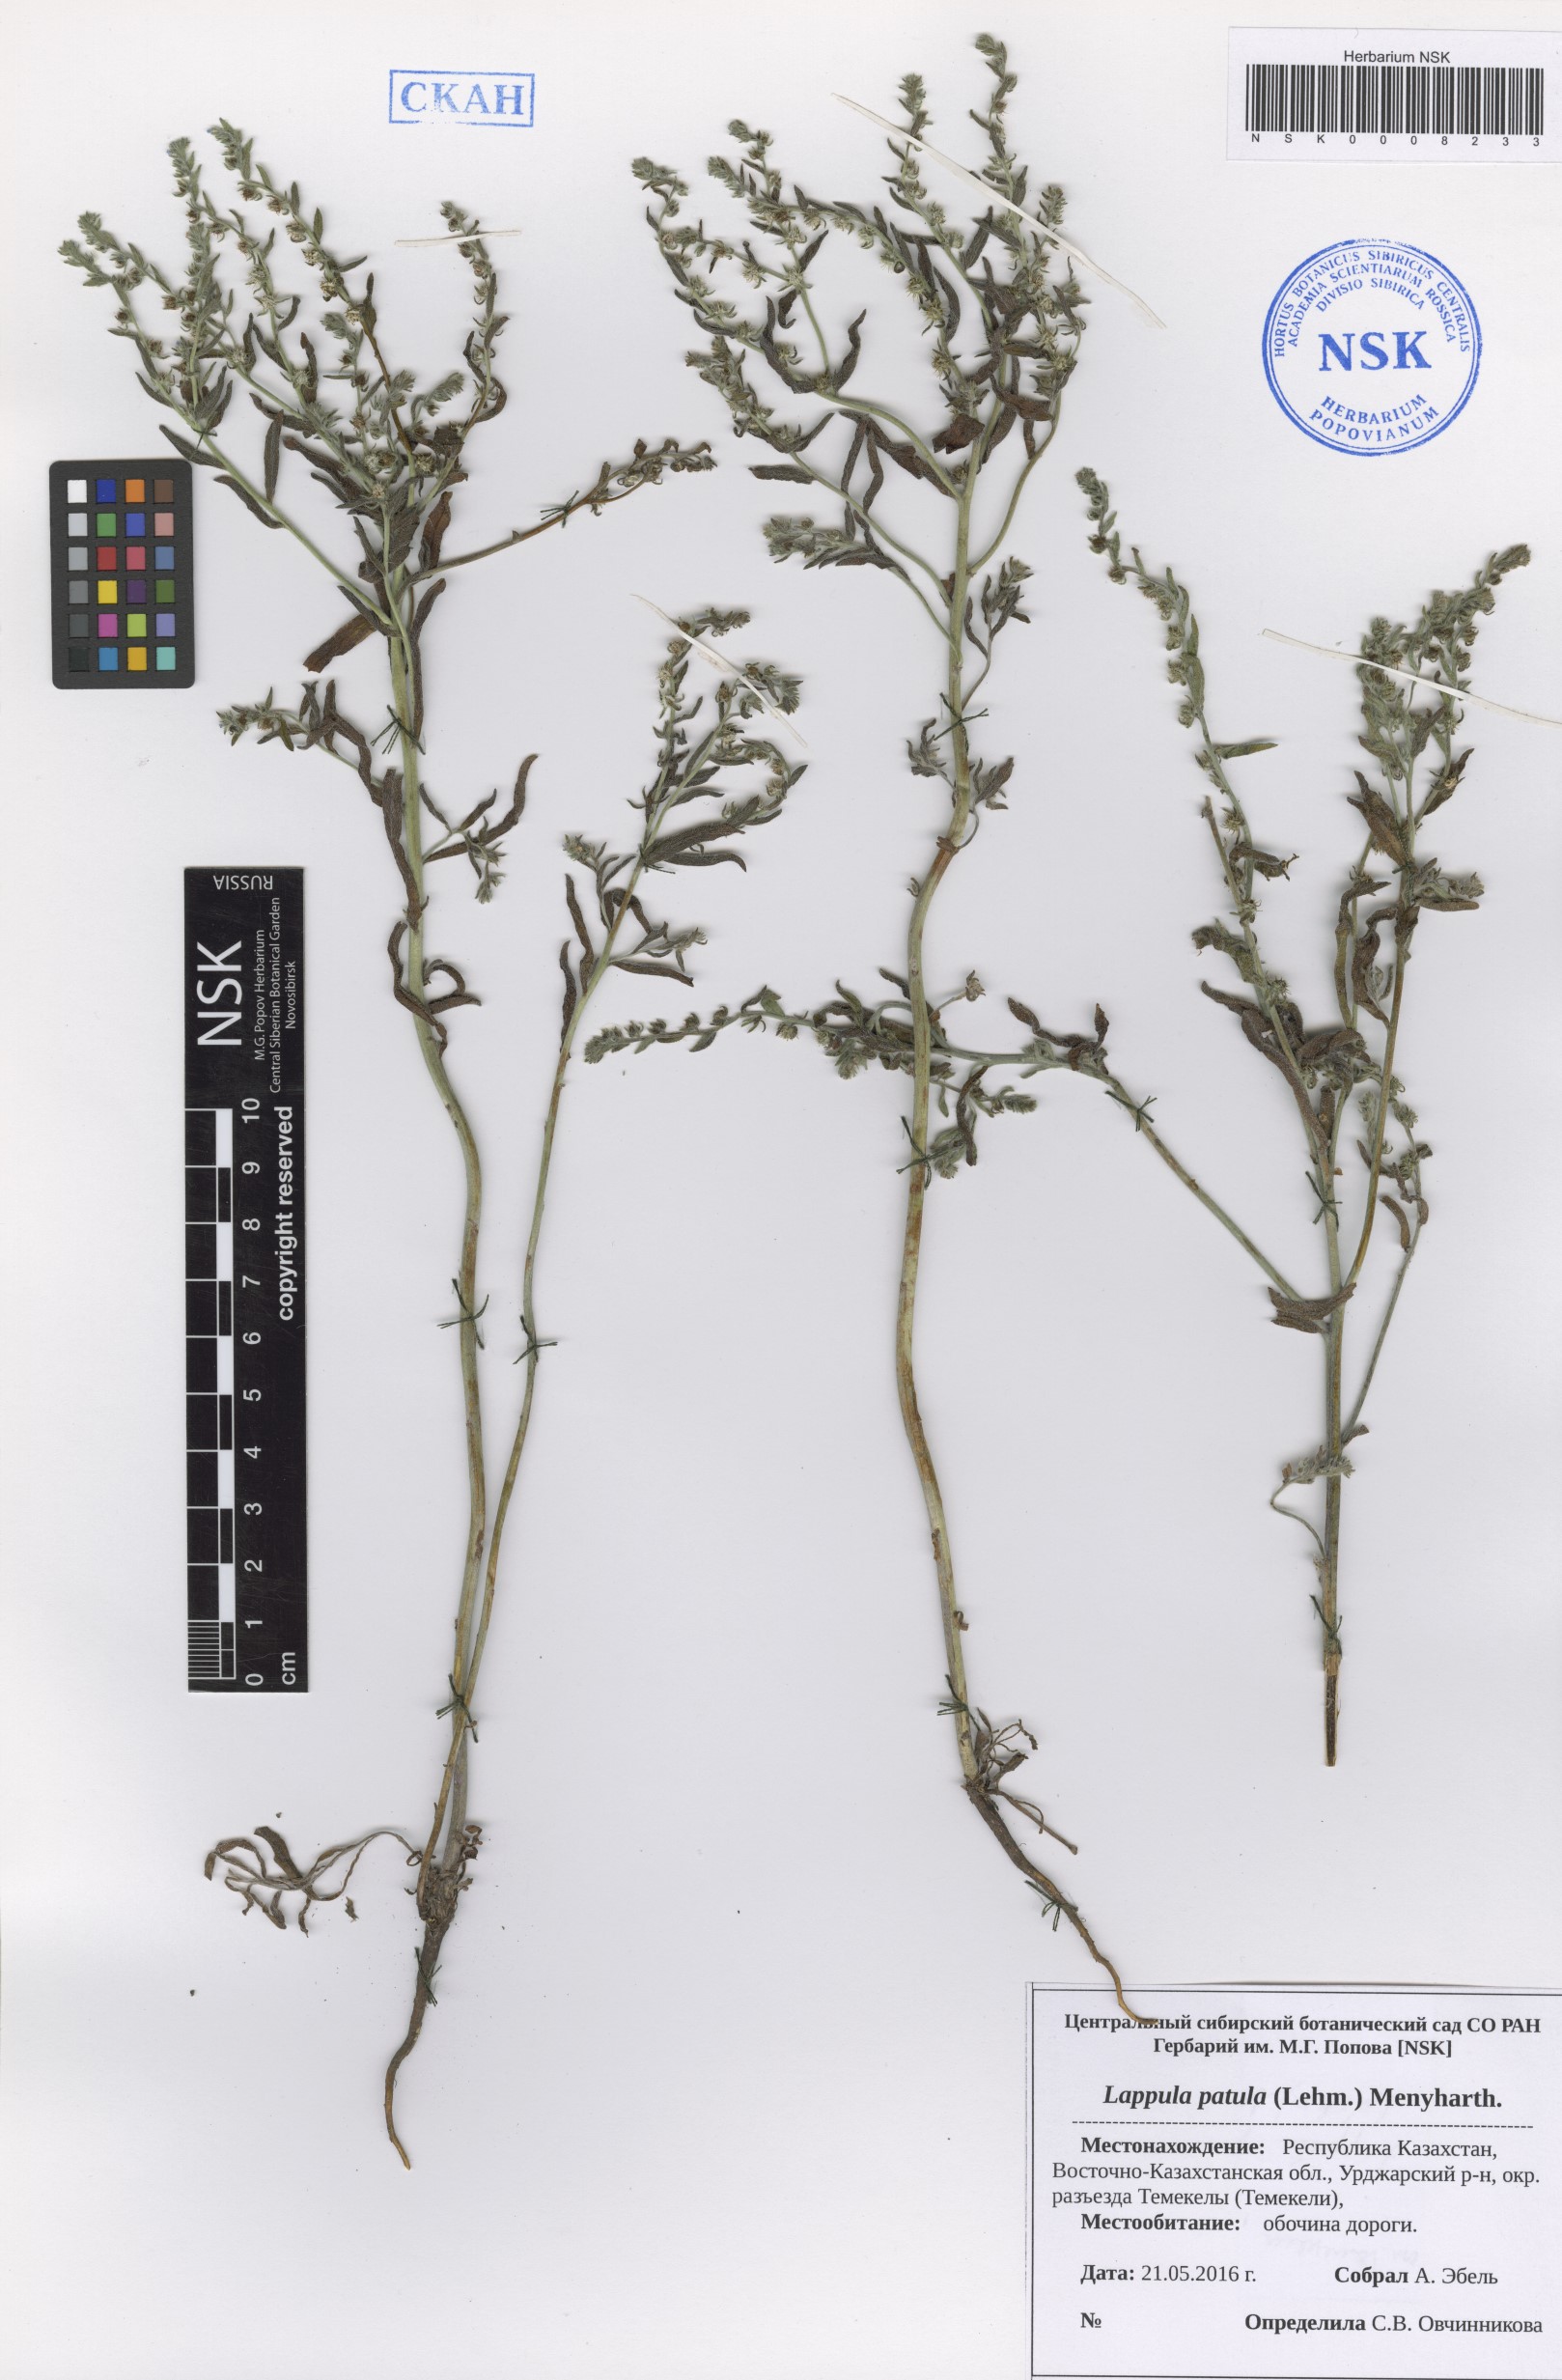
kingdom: Plantae
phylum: Tracheophyta
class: Magnoliopsida
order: Boraginales
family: Boraginaceae
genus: Lappula
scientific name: Lappula patula
